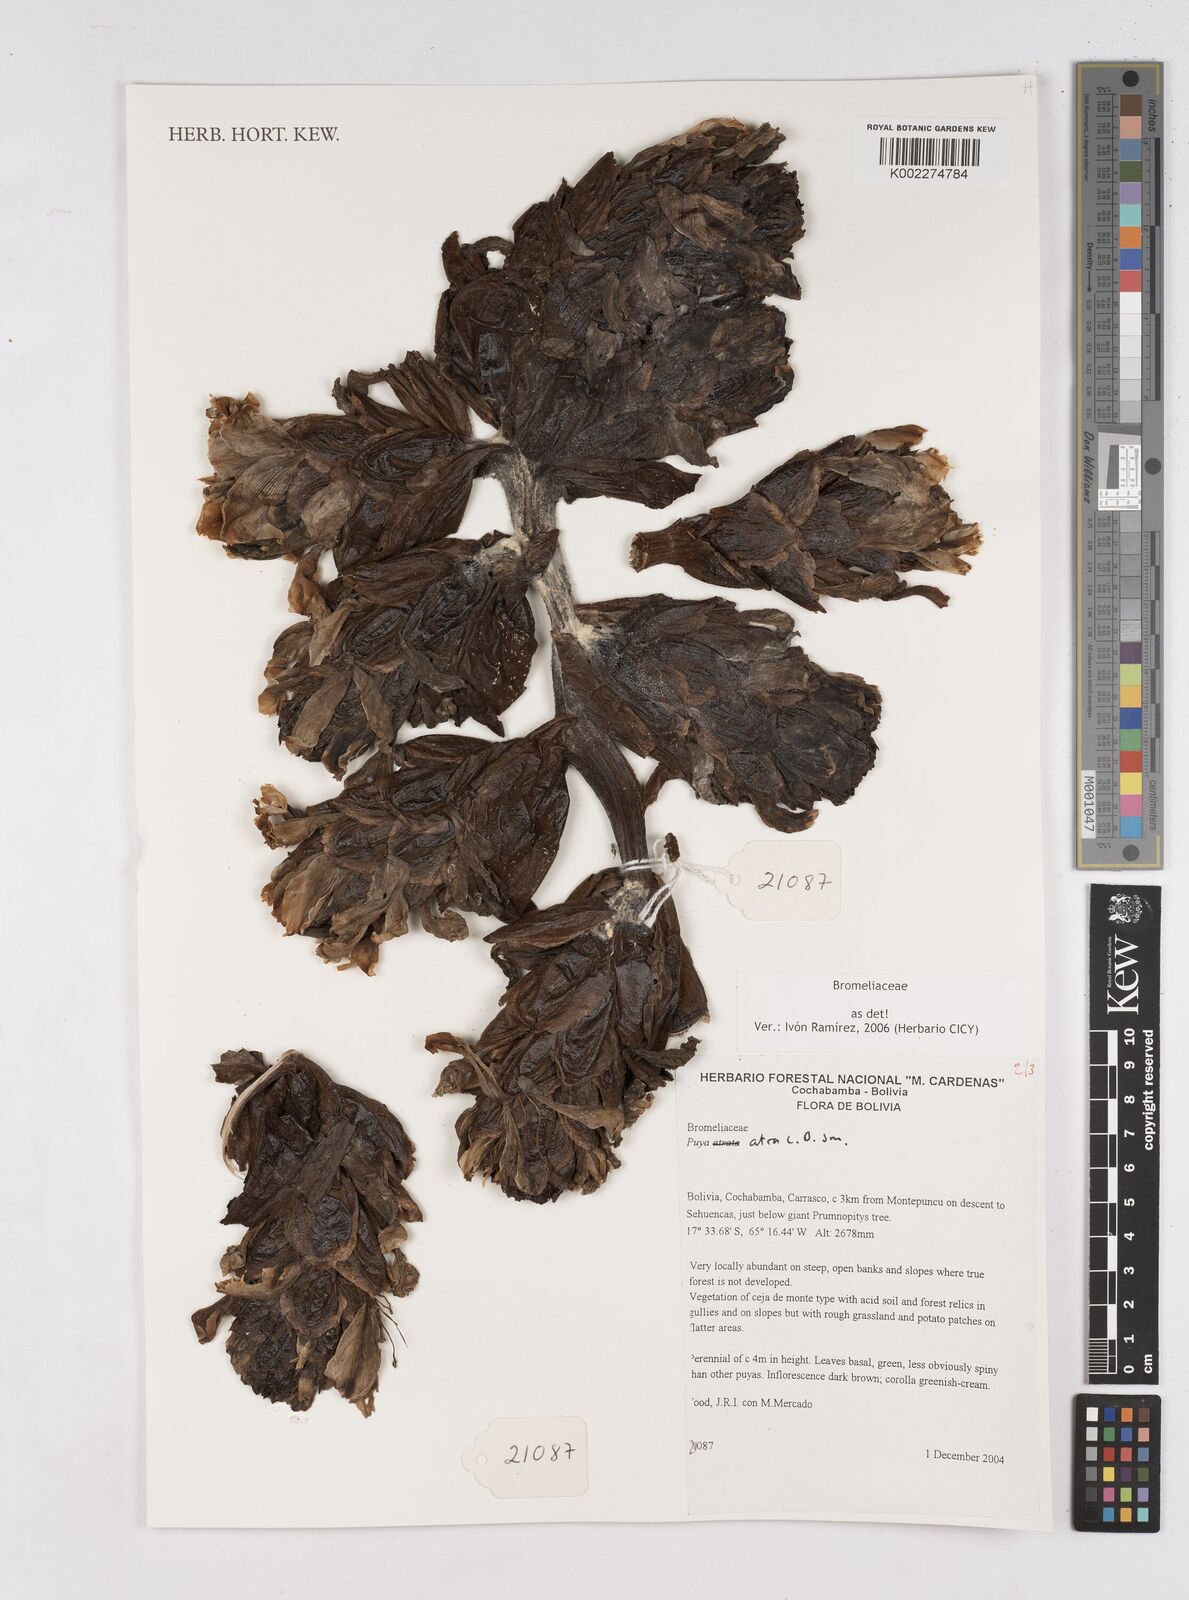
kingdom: Plantae
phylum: Tracheophyta
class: Liliopsida
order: Poales
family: Bromeliaceae
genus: Puya
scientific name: Puya atra
